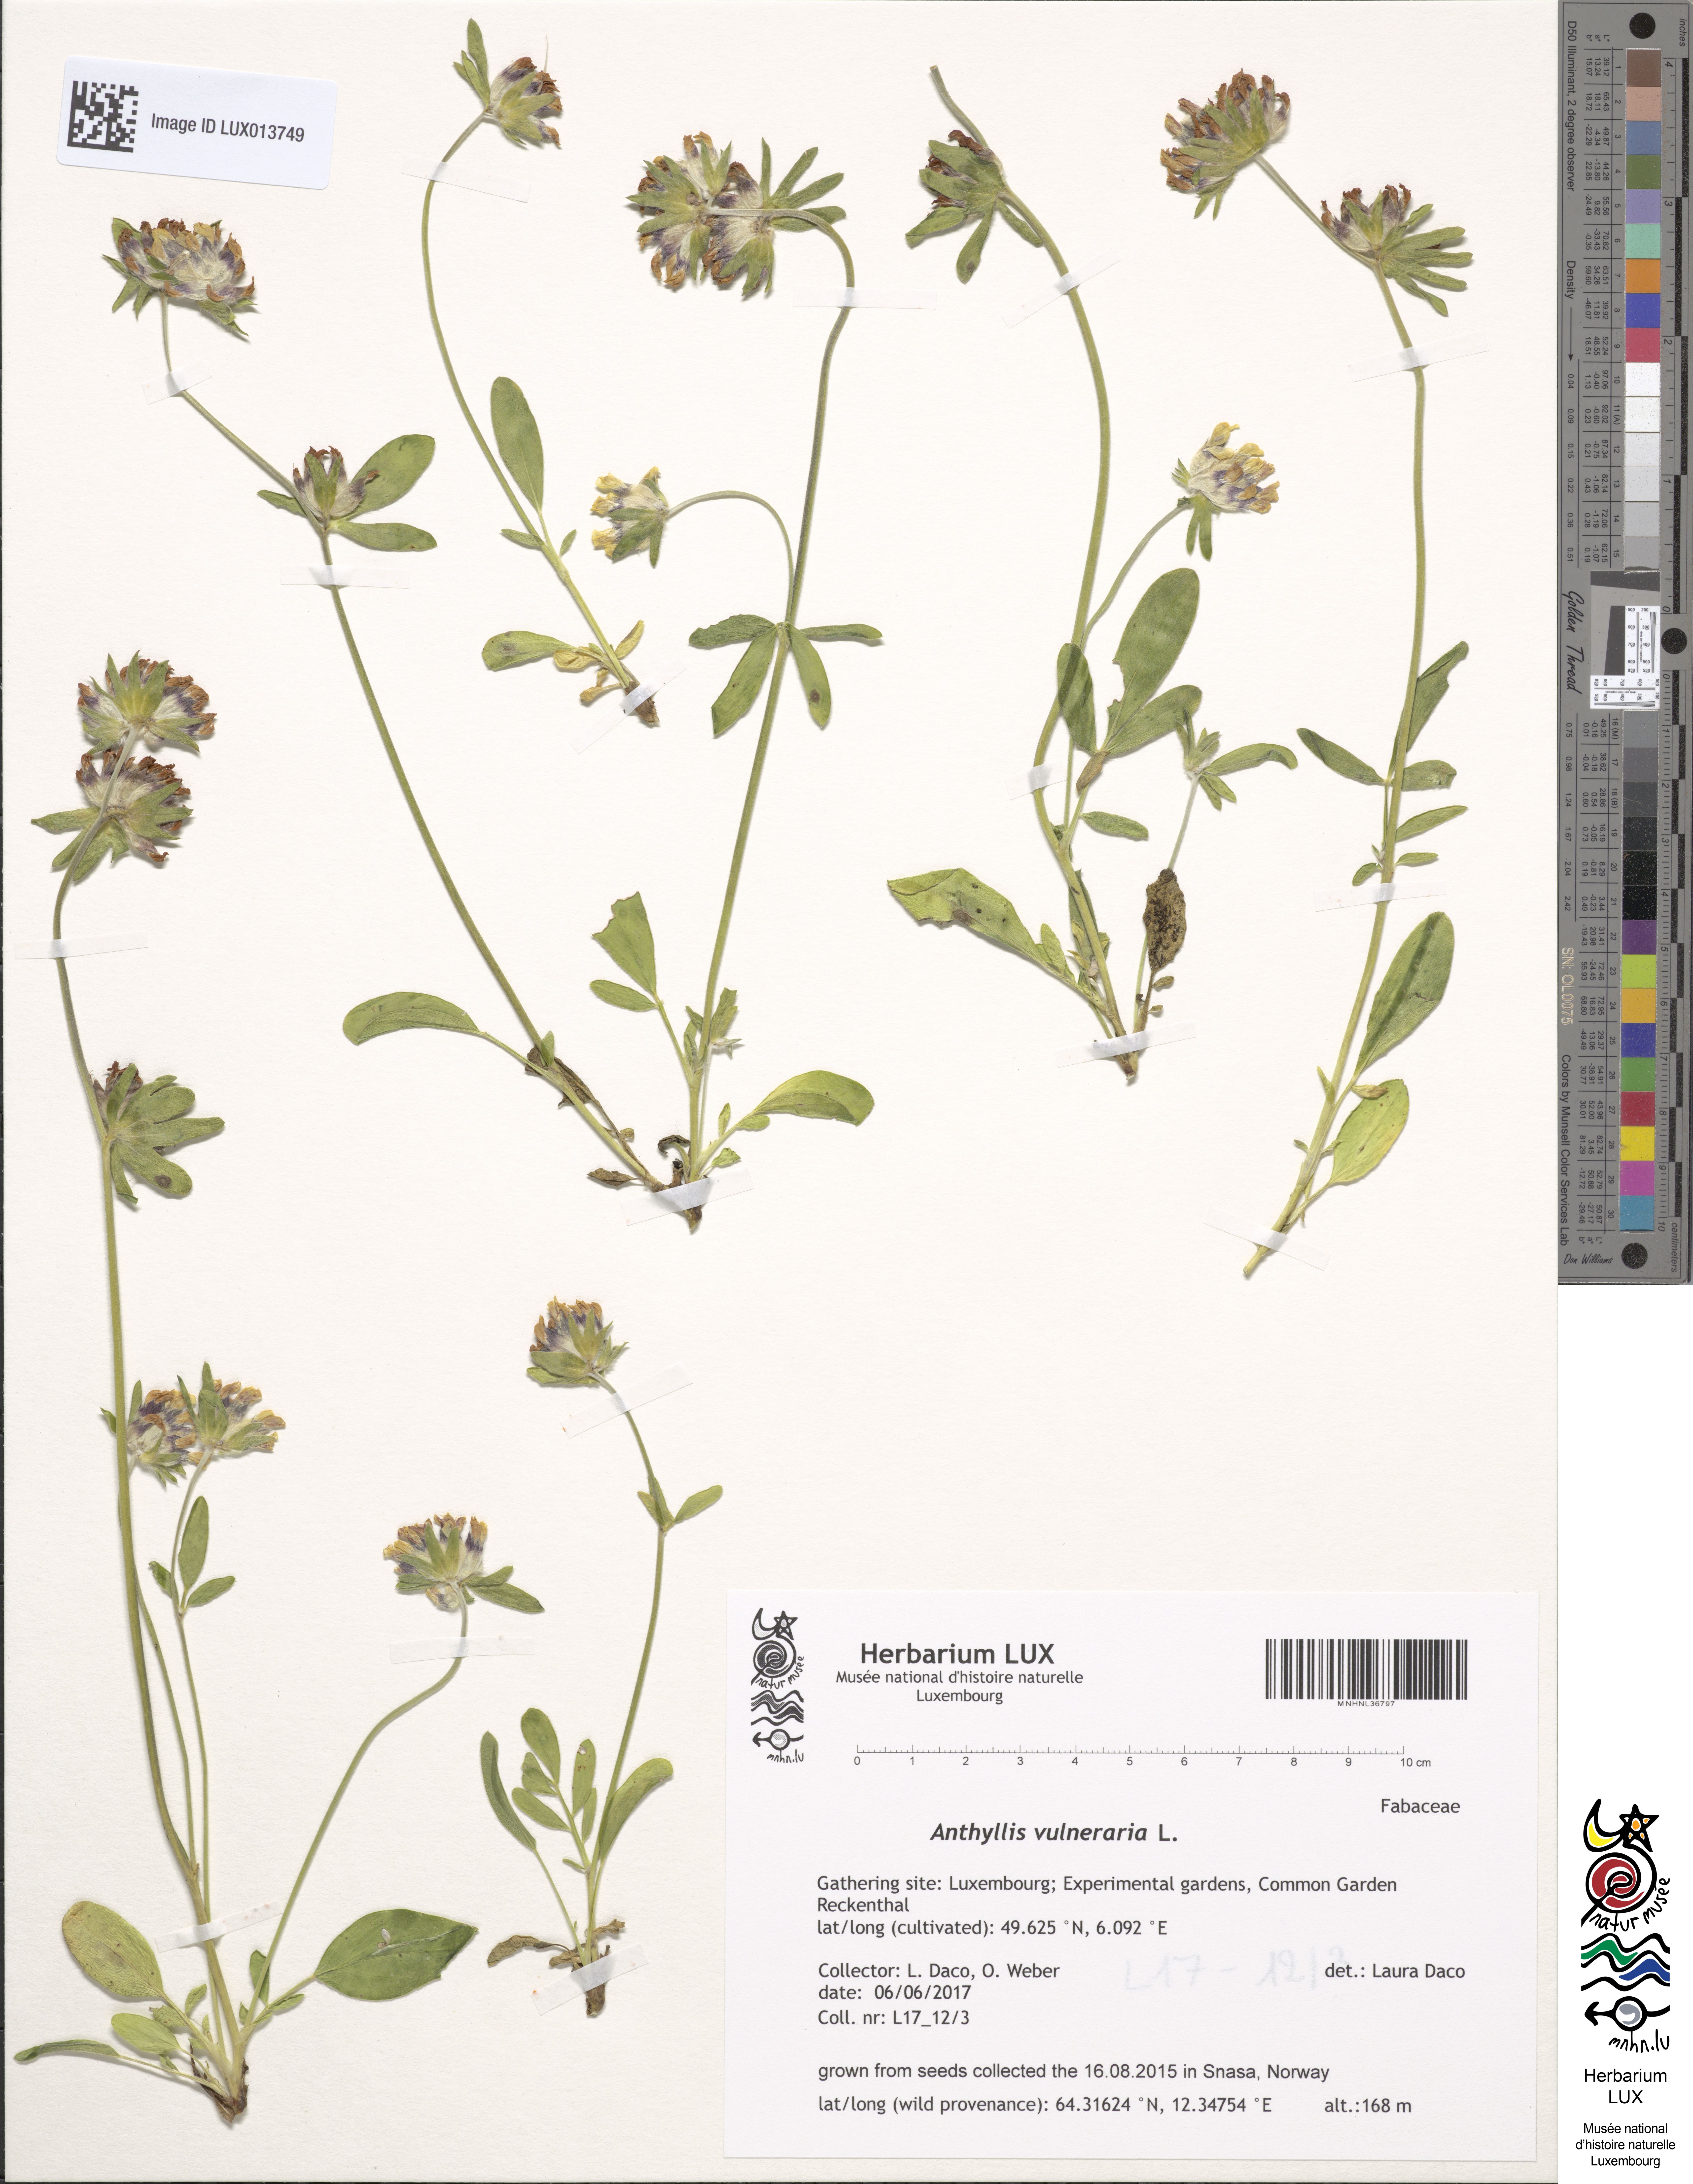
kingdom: Plantae
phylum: Tracheophyta
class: Magnoliopsida
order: Fabales
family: Fabaceae
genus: Anthyllis
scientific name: Anthyllis vulneraria
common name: Kidney vetch
